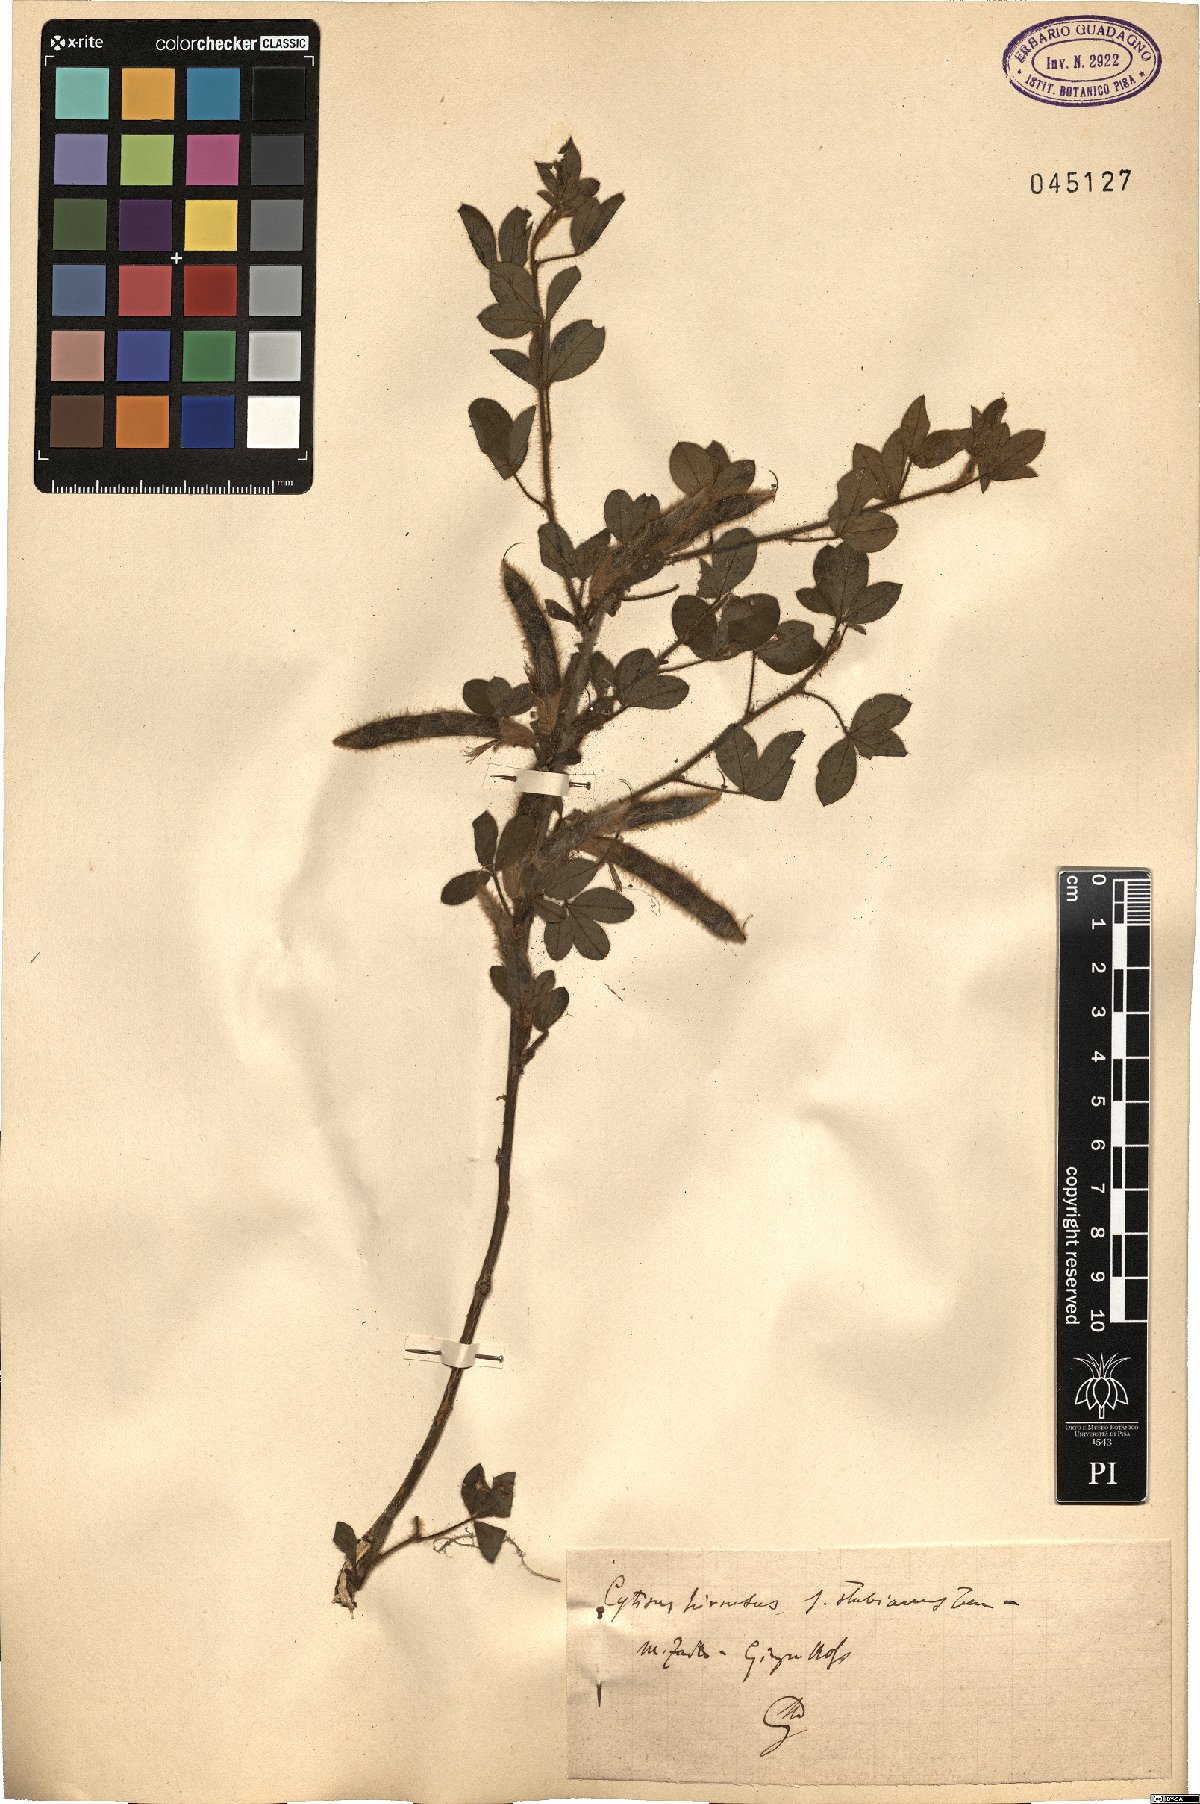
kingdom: Plantae
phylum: Tracheophyta
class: Magnoliopsida
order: Fabales
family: Fabaceae
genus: Chamaecytisus
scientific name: Chamaecytisus hirsutus
